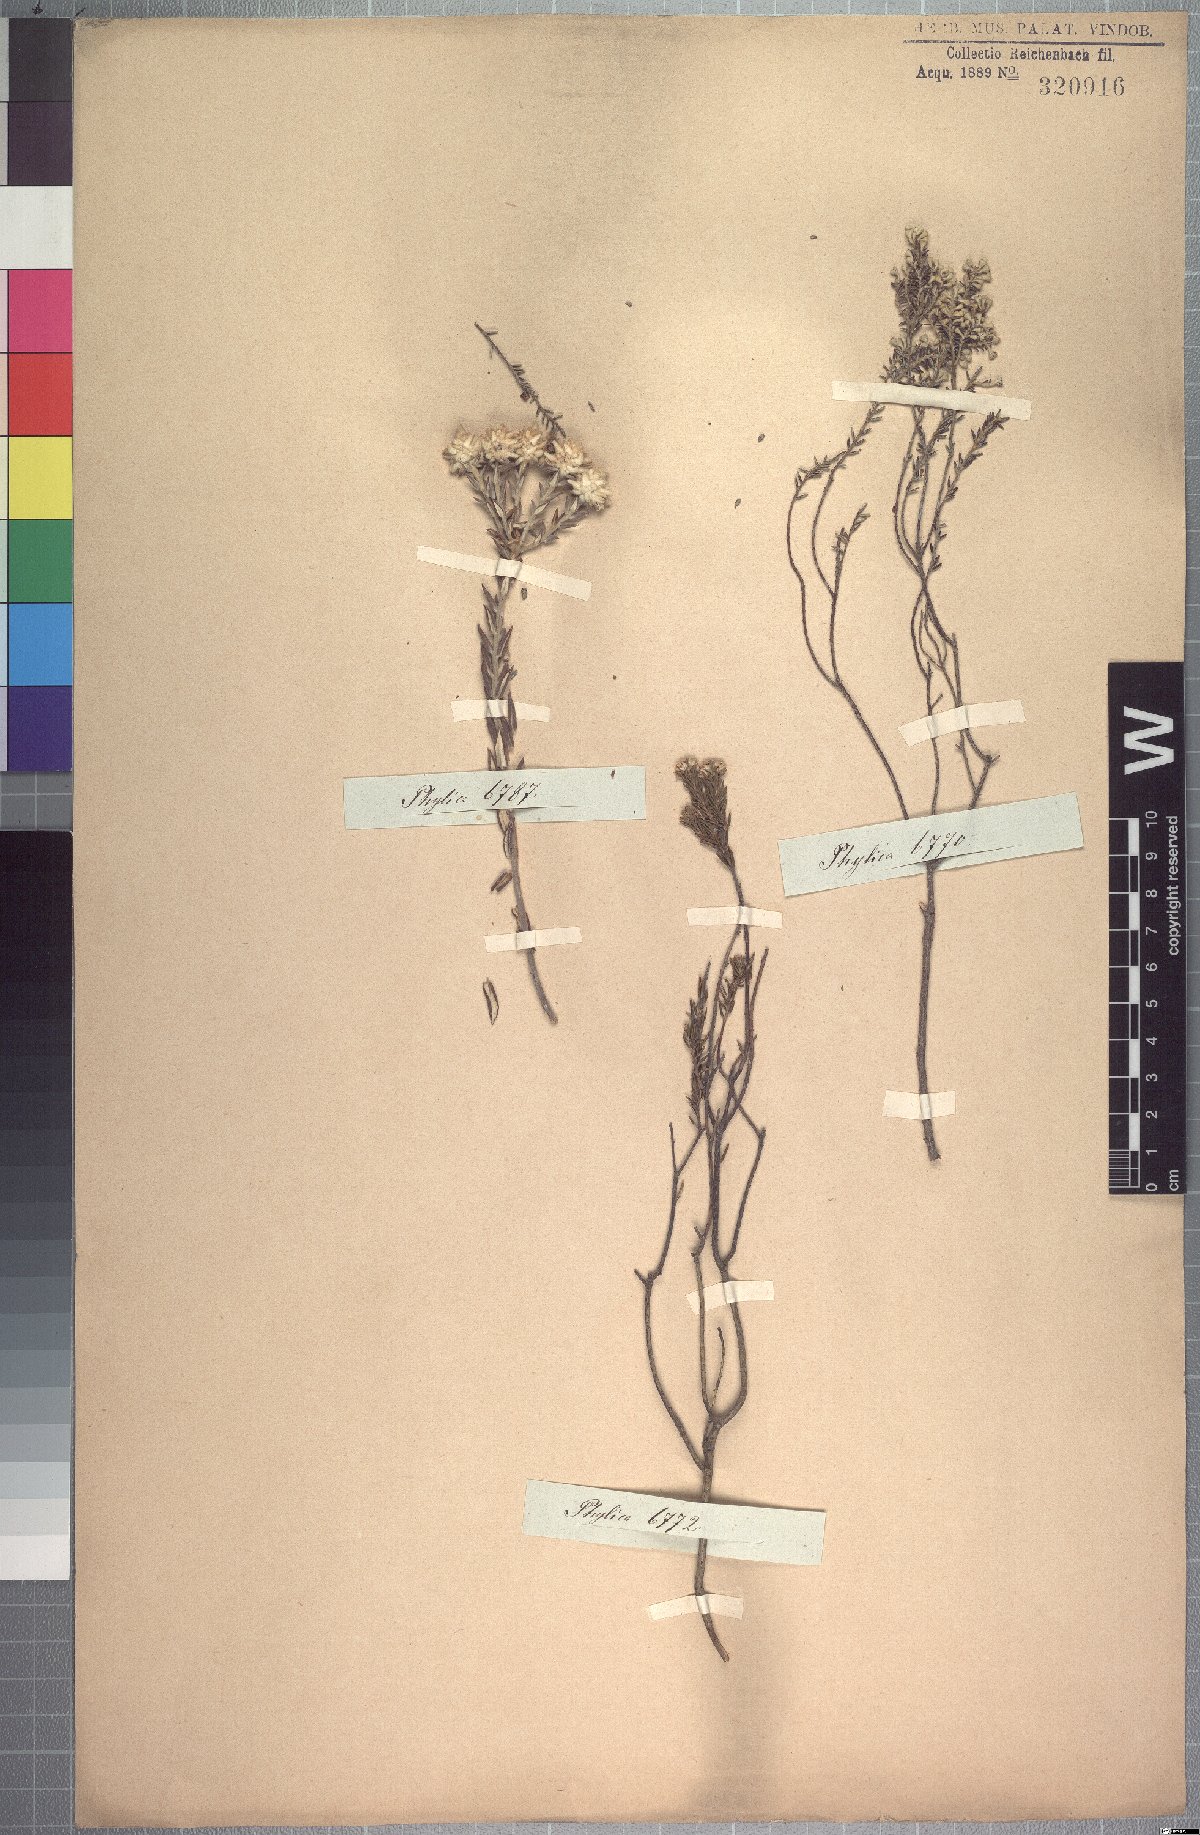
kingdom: Plantae
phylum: Tracheophyta
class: Magnoliopsida
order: Rosales
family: Rhamnaceae
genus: Phylica
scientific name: Phylica rigidifolia
